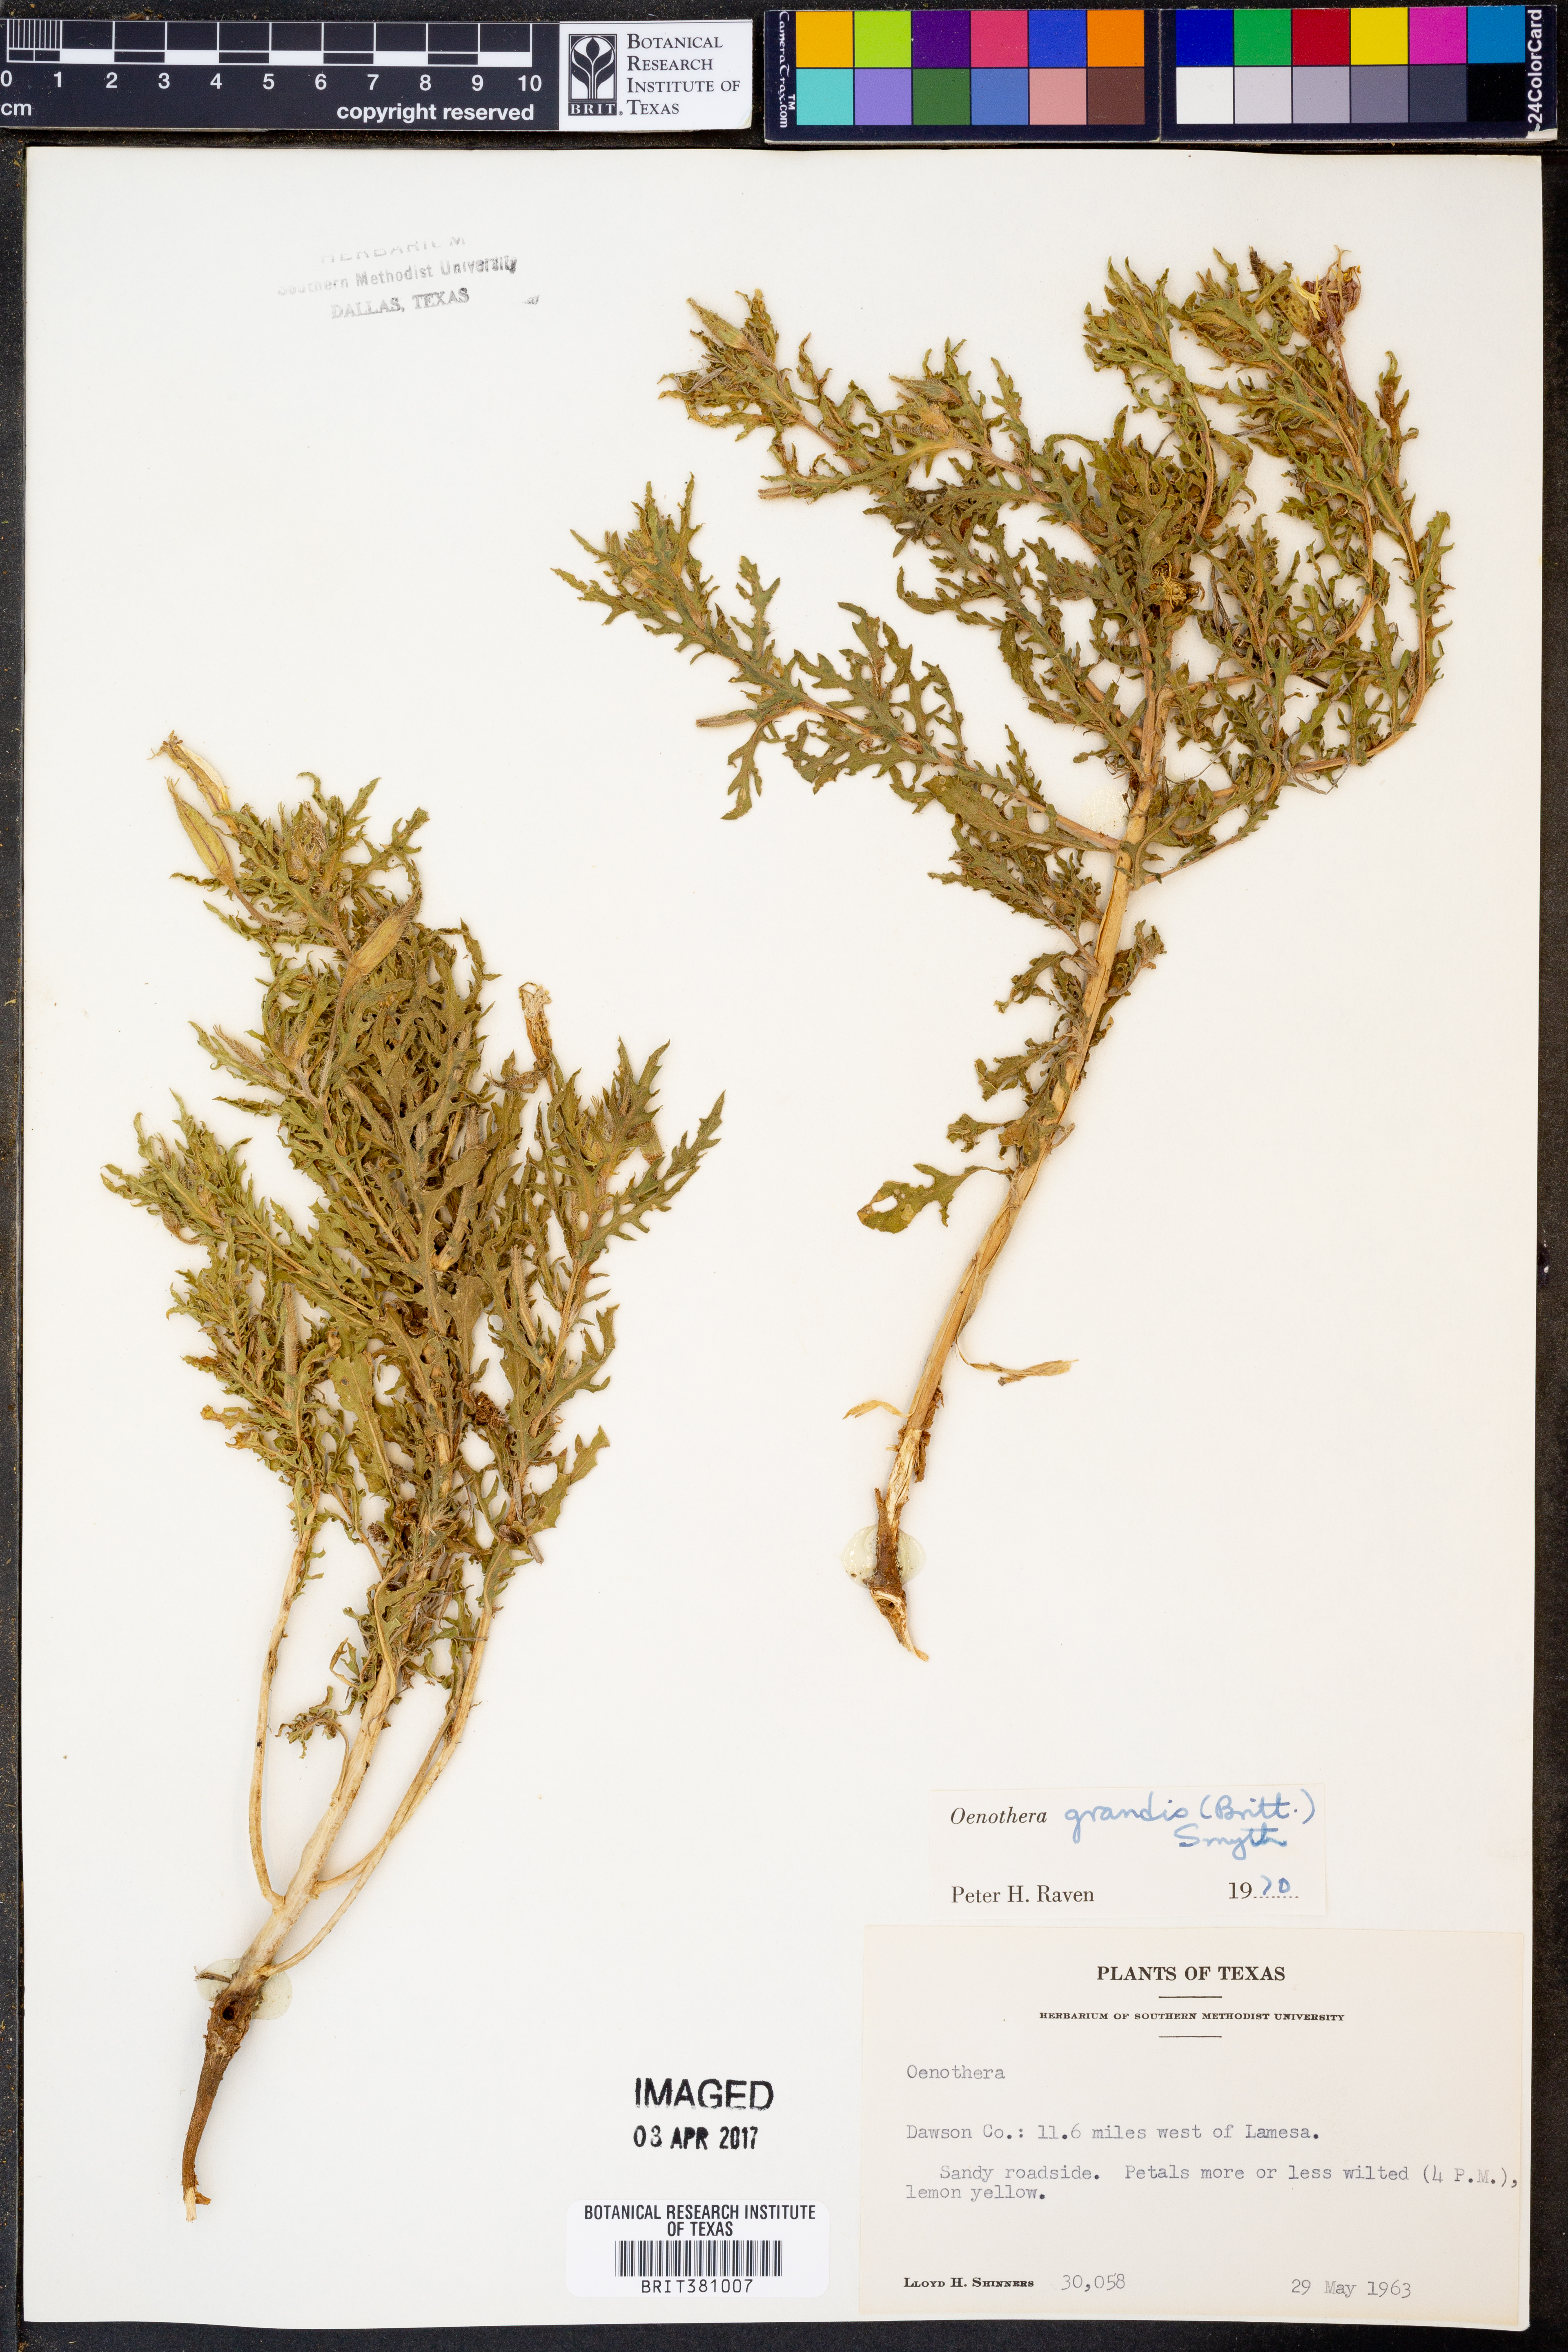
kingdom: Plantae
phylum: Tracheophyta
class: Magnoliopsida
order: Myrtales
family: Onagraceae
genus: Oenothera
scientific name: Oenothera grandis
